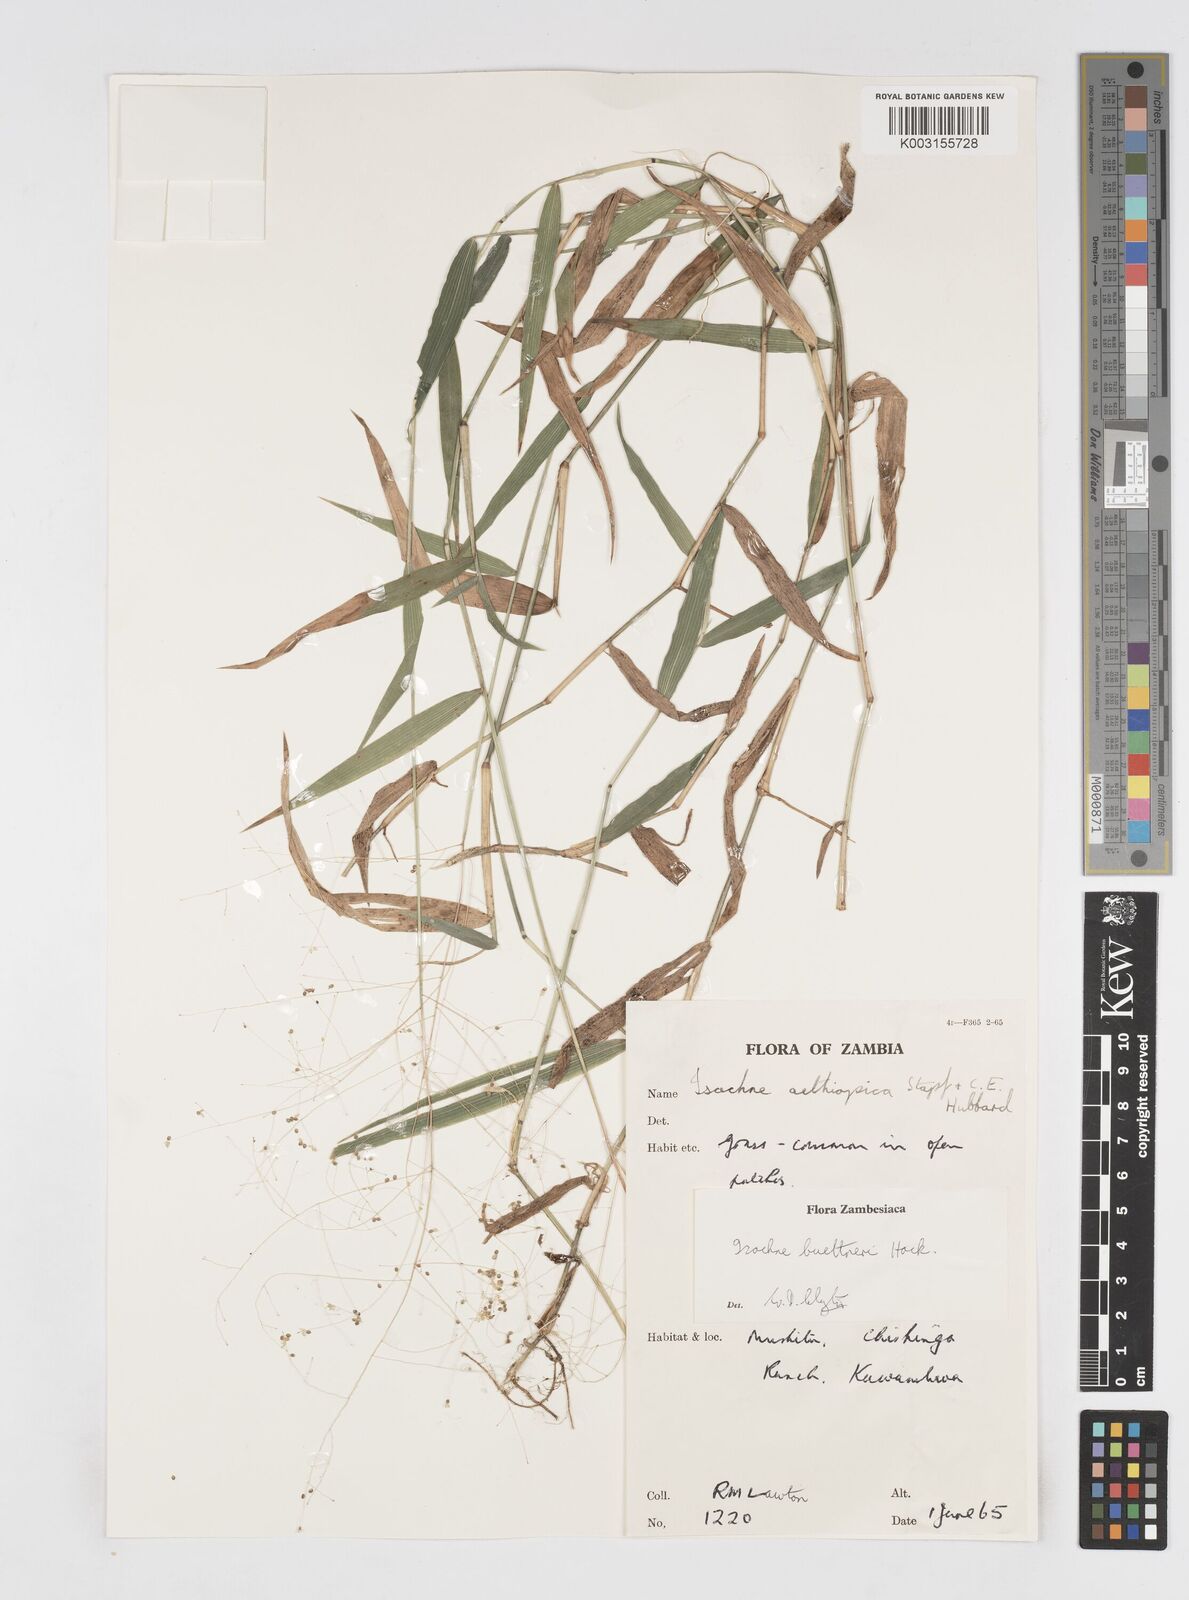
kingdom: Plantae
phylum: Tracheophyta
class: Liliopsida
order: Poales
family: Poaceae
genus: Isachne
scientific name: Isachne albens
